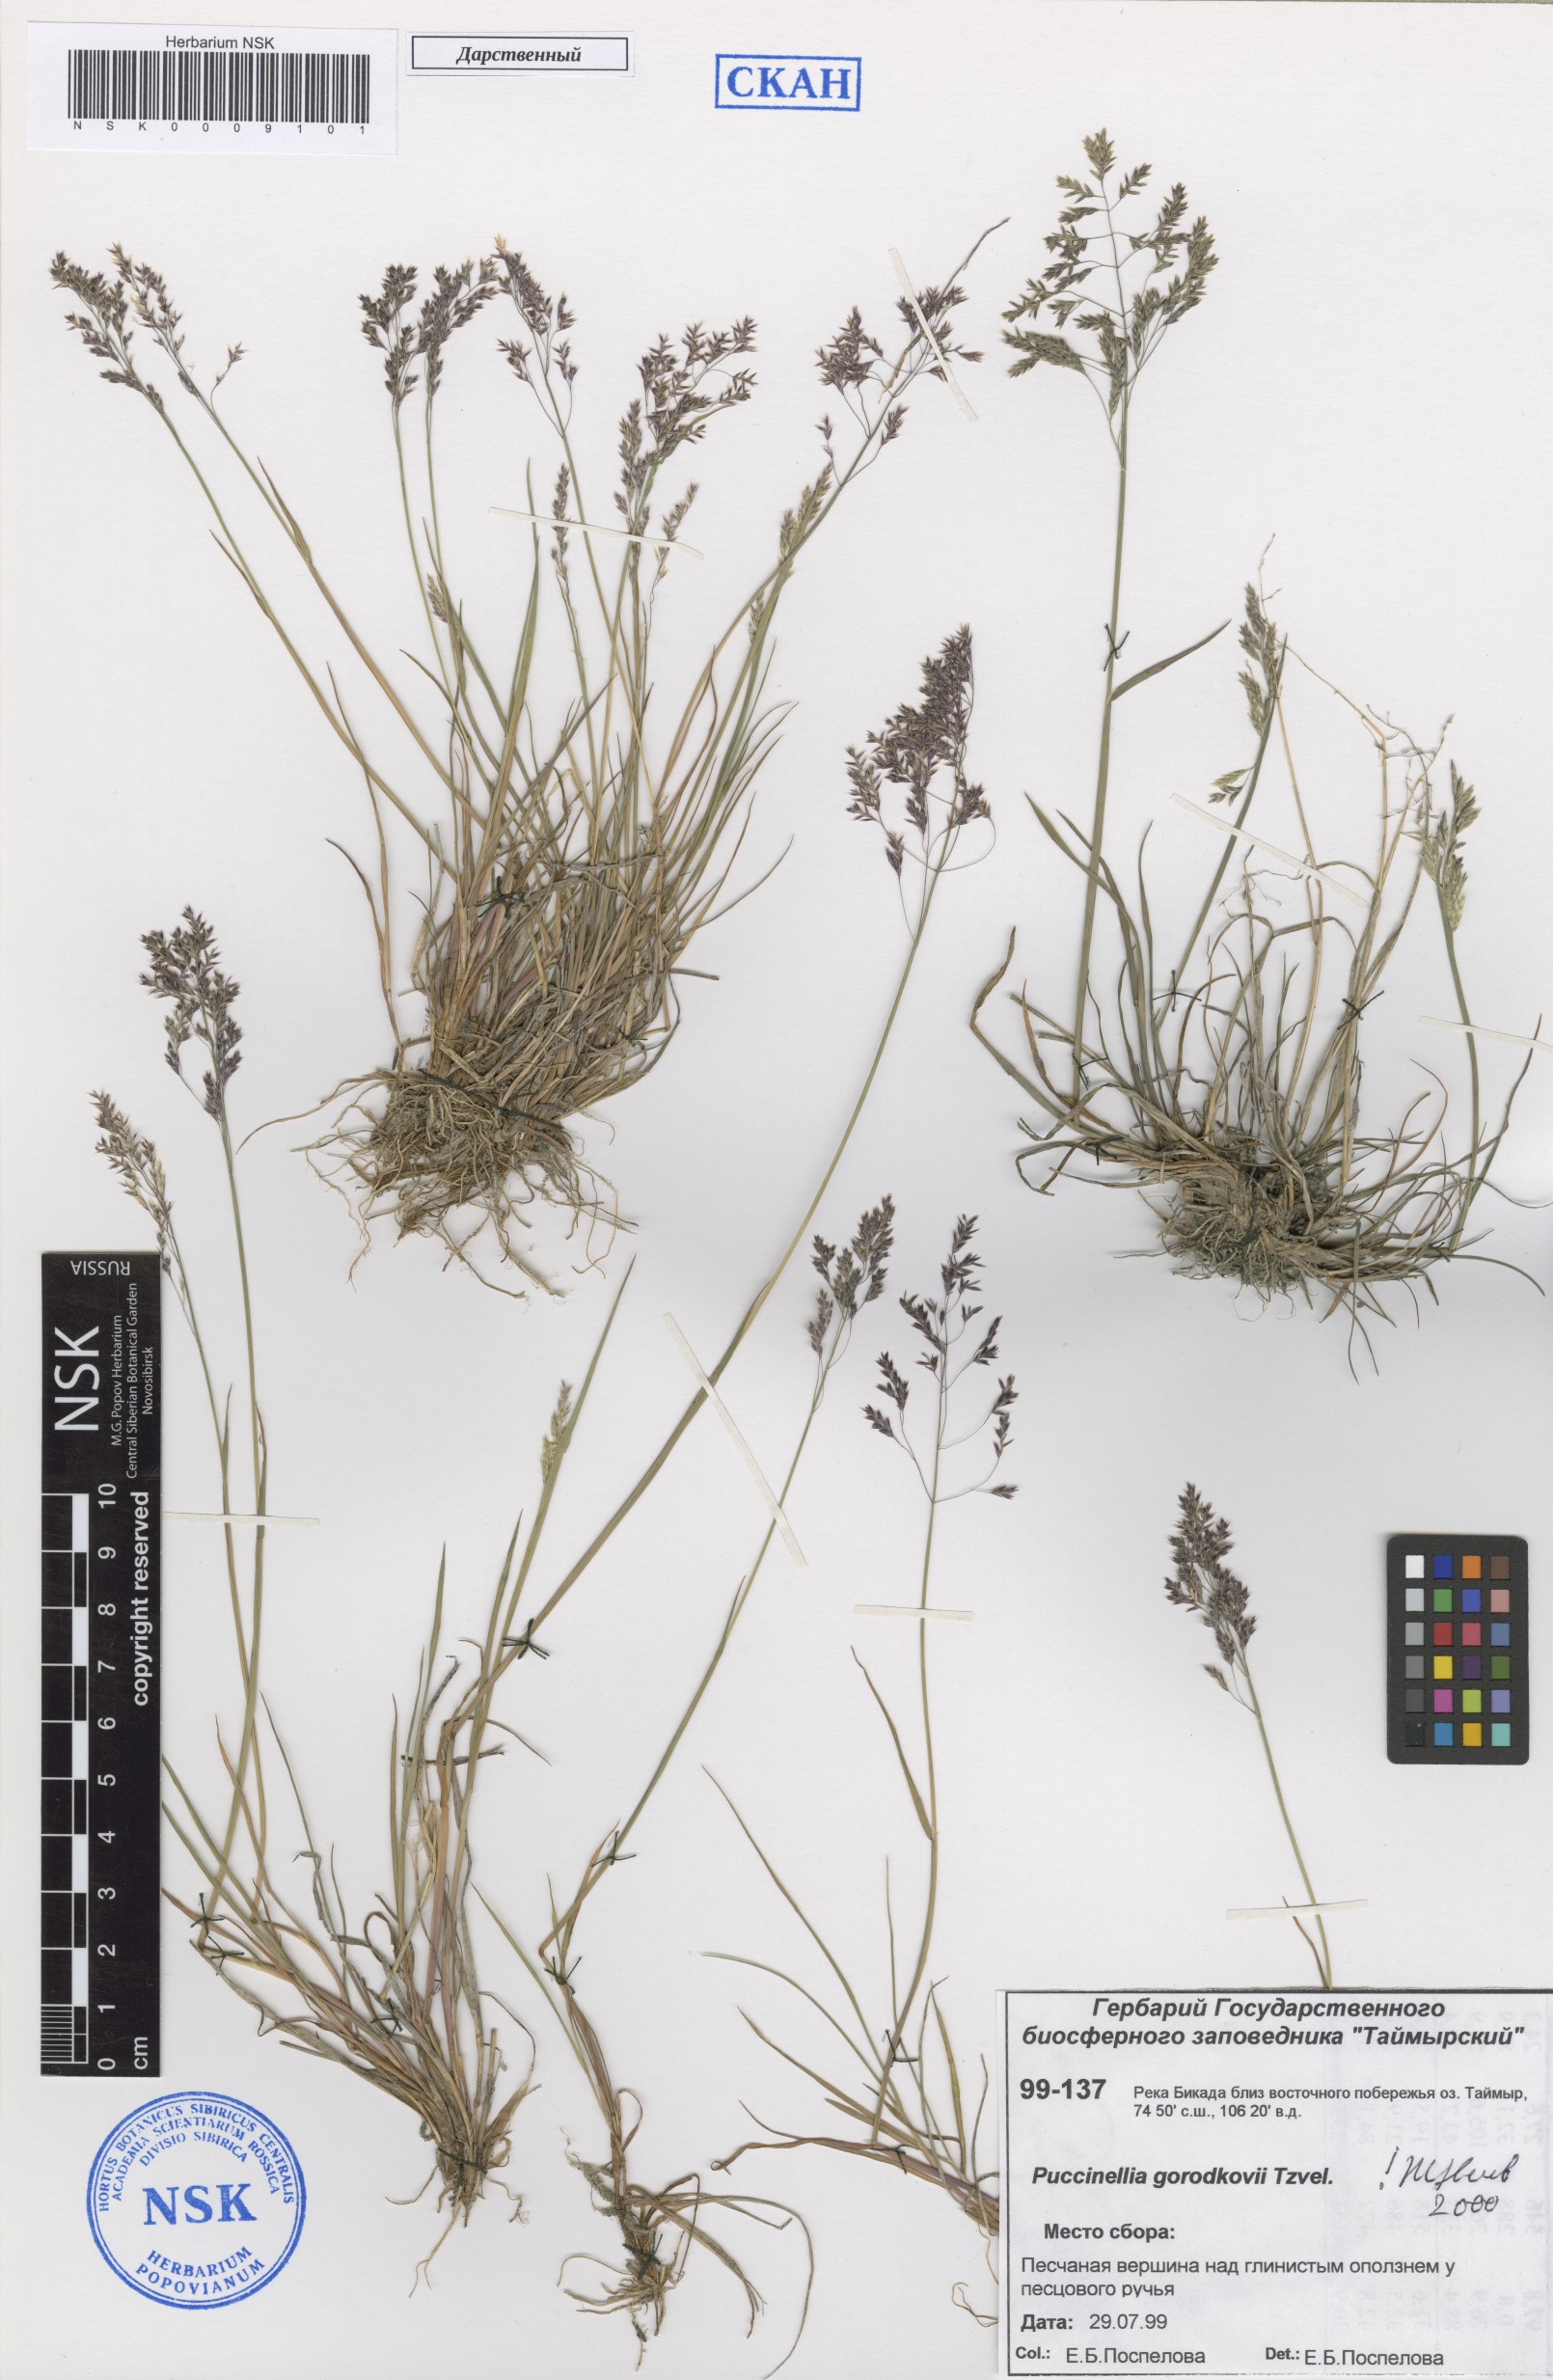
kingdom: Plantae
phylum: Tracheophyta
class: Liliopsida
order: Poales
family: Poaceae
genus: Puccinellia
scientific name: Puccinellia gorodkovii
